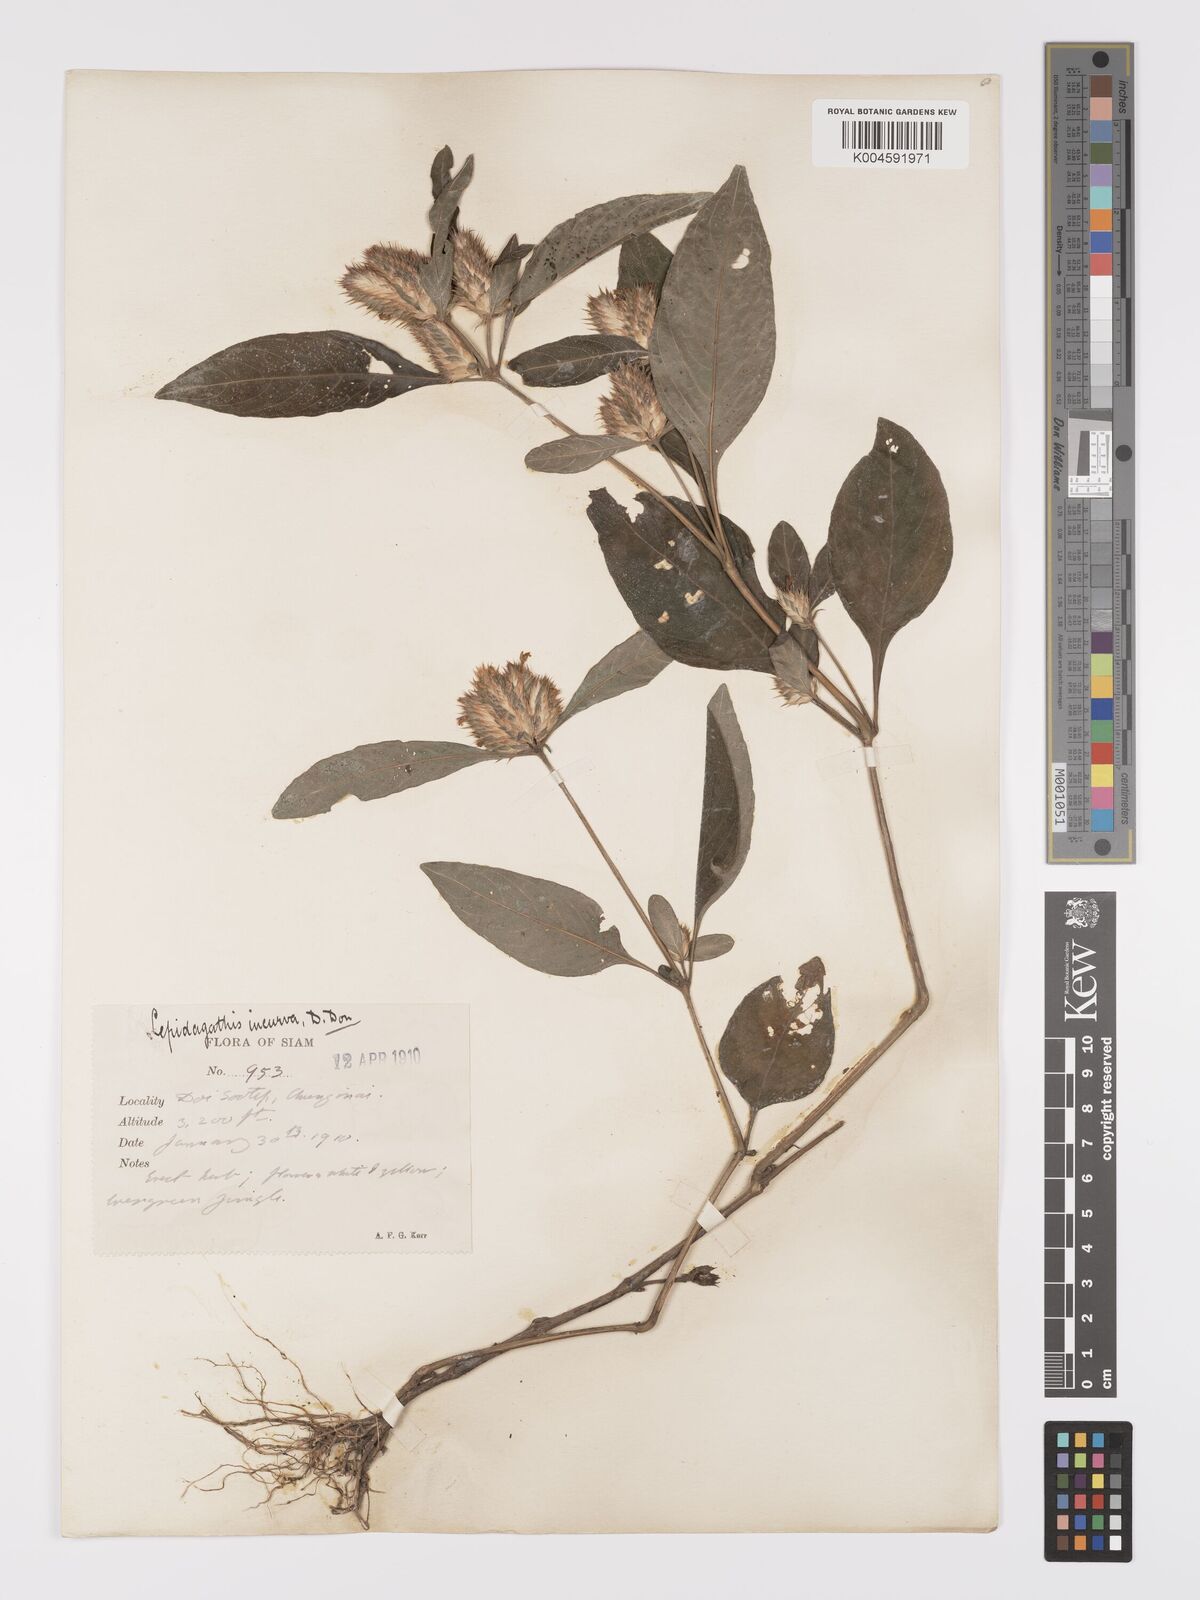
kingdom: Plantae
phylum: Tracheophyta
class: Magnoliopsida
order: Lamiales
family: Acanthaceae
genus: Lepidagathis
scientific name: Lepidagathis incurva
